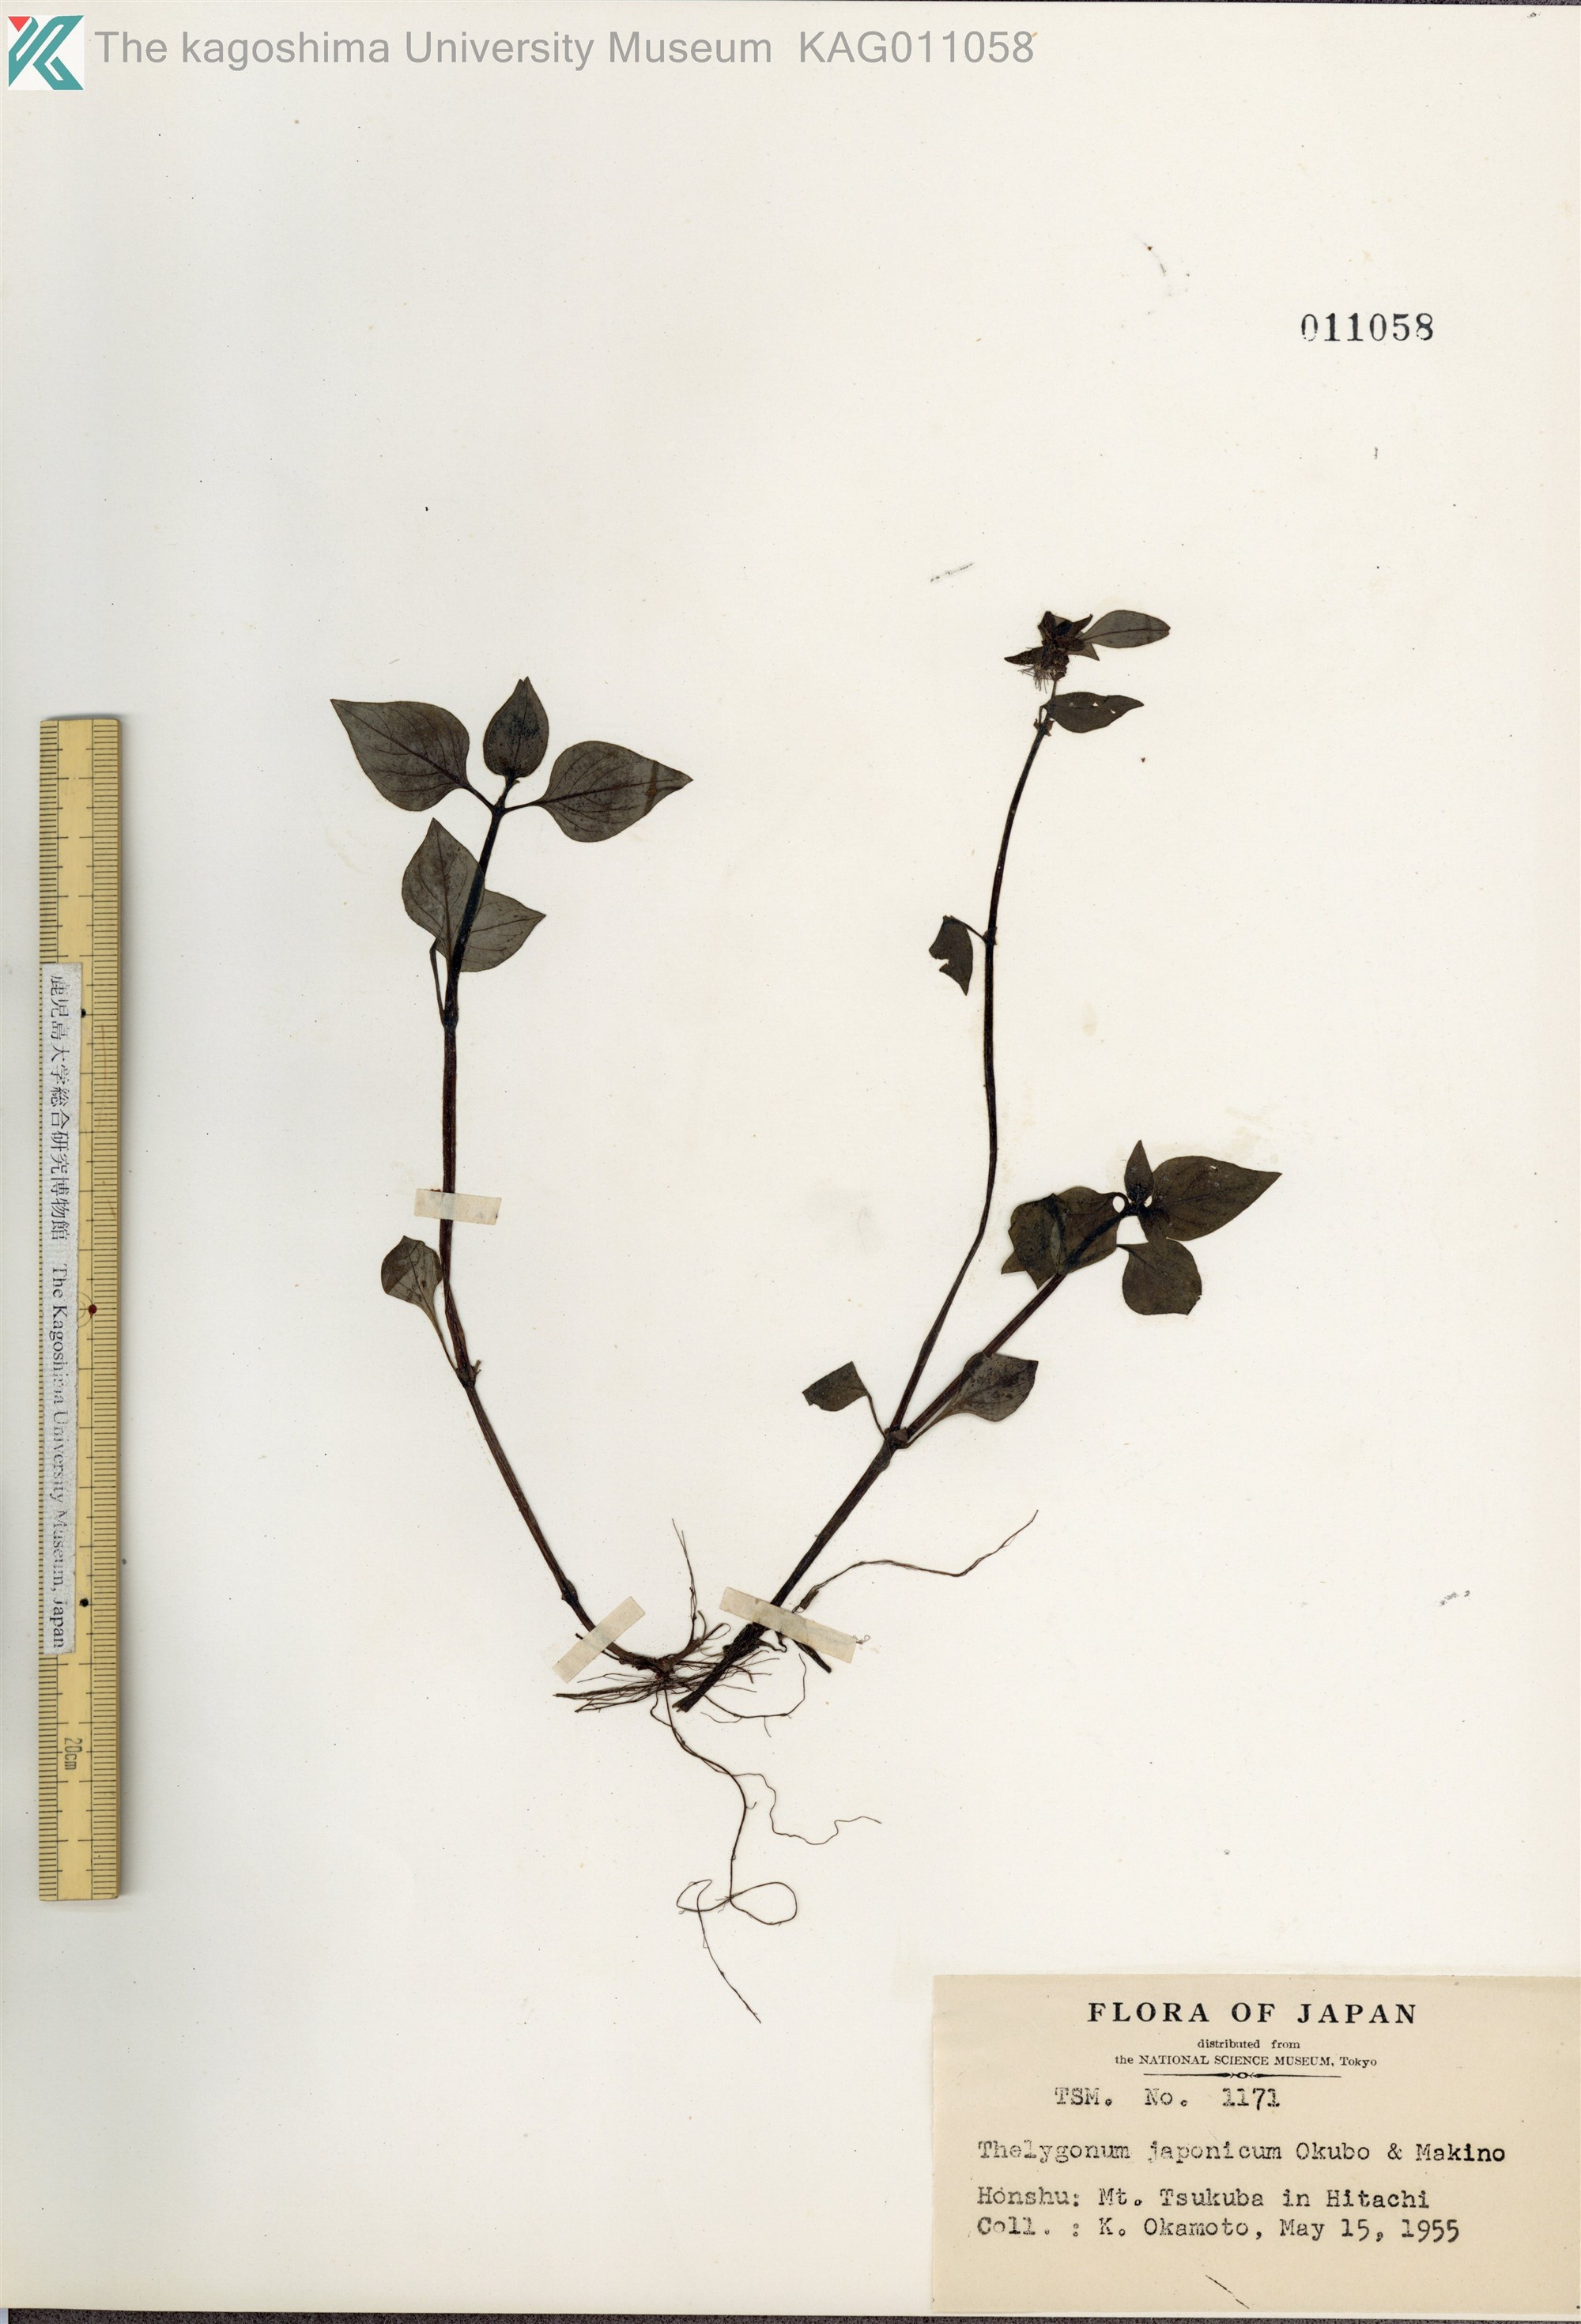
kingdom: Plantae
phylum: Tracheophyta
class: Magnoliopsida
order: Gentianales
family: Rubiaceae
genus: Theligonum
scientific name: Theligonum japonicum
